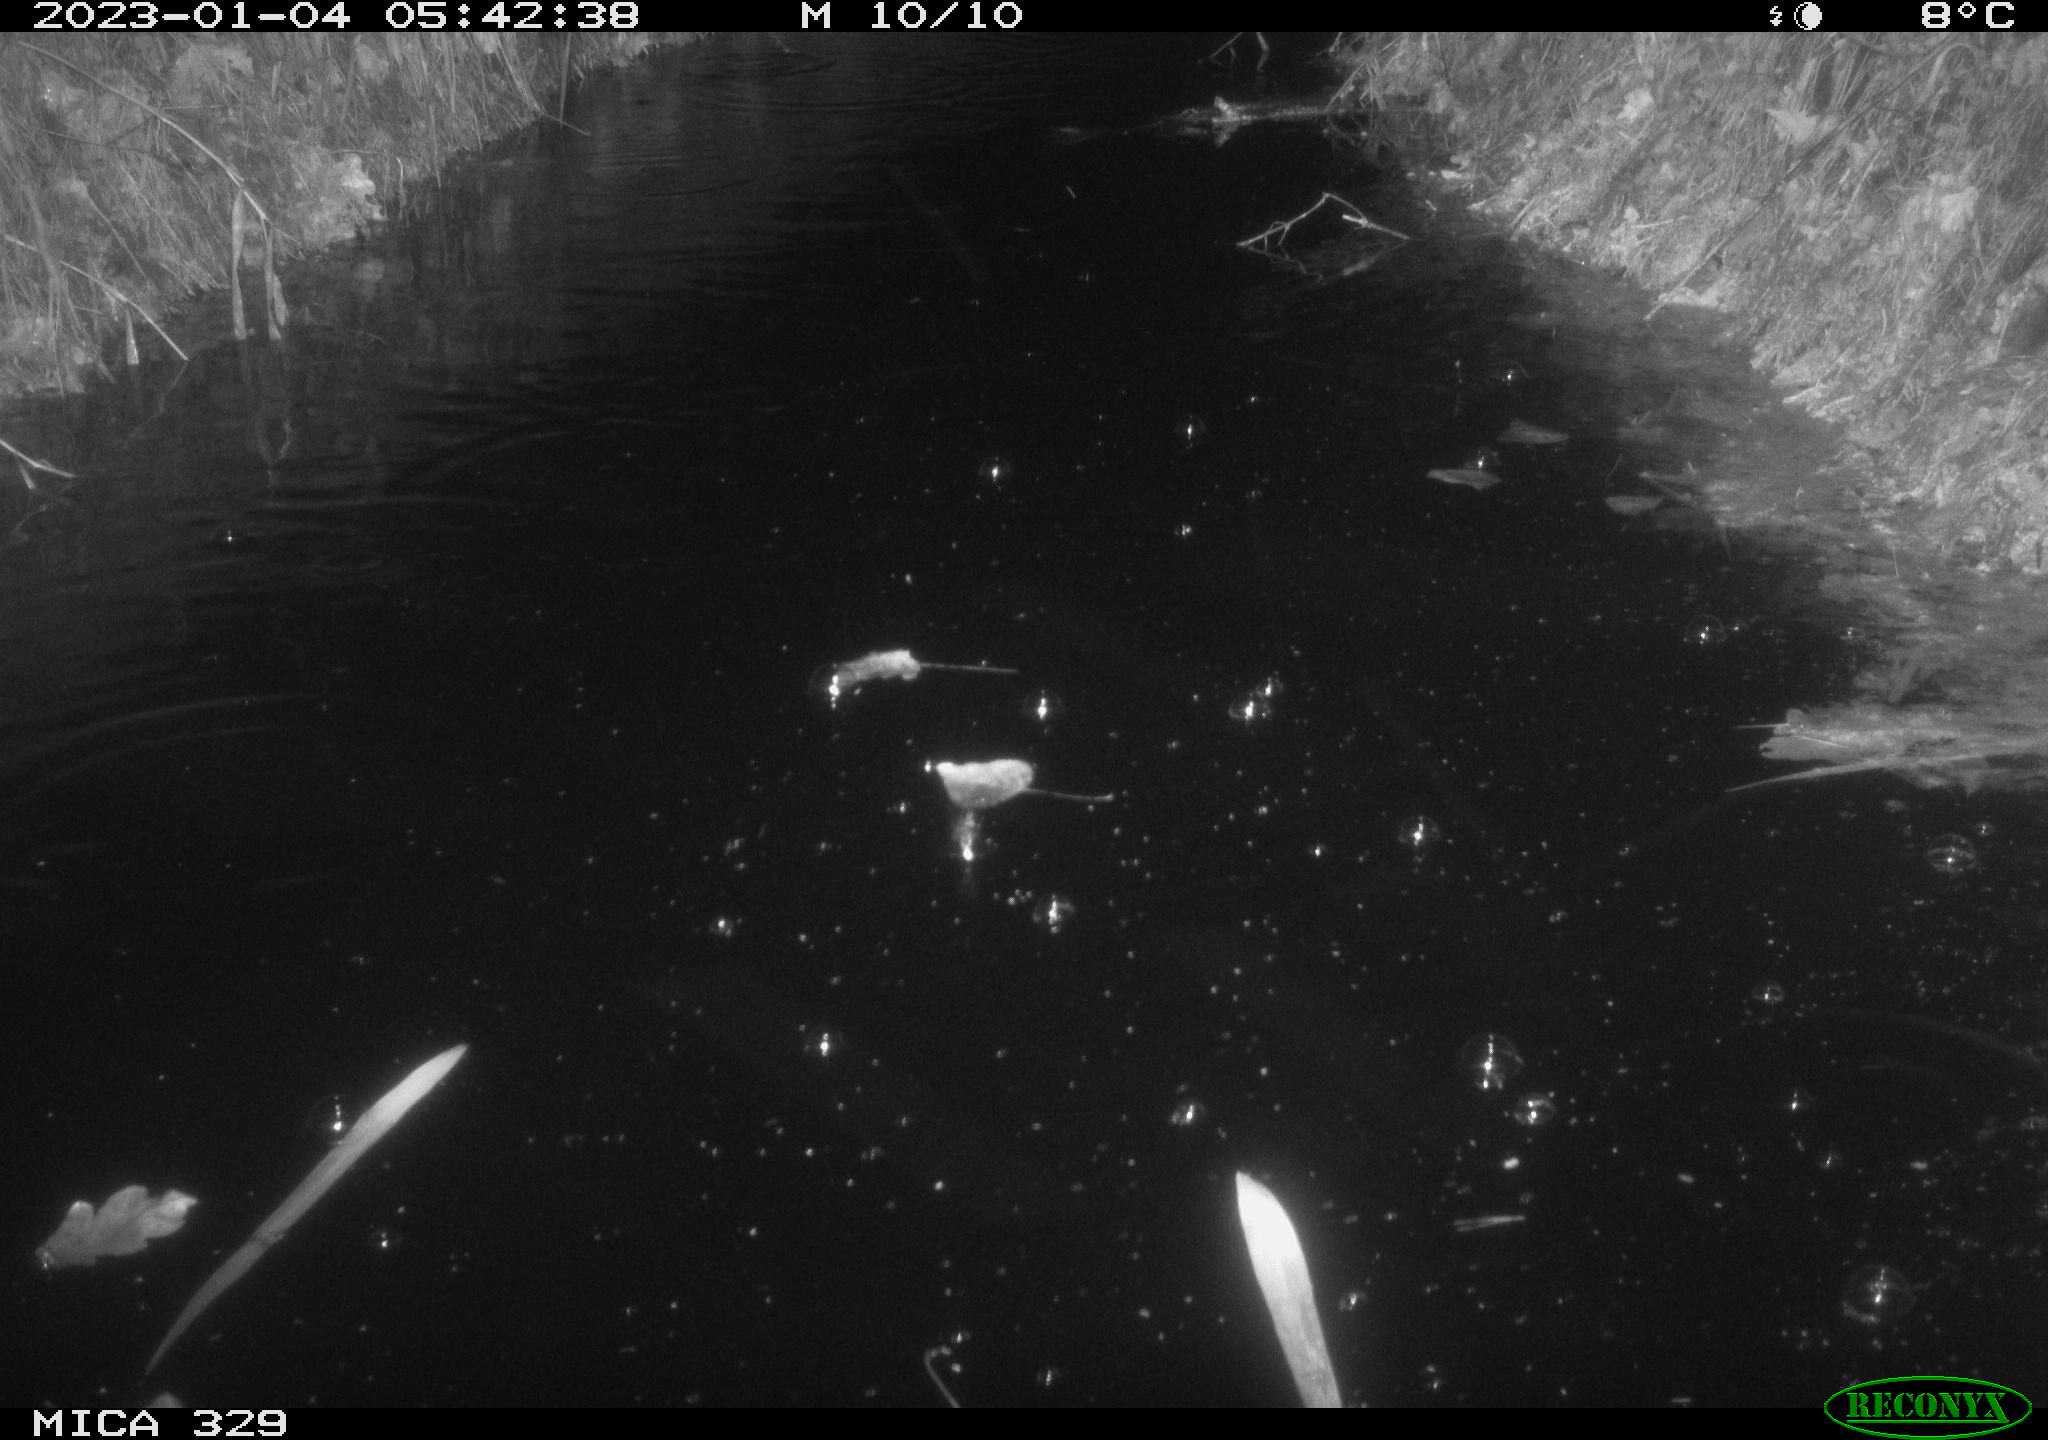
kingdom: Animalia
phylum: Chordata
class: Mammalia
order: Rodentia
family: Cricetidae
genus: Ondatra
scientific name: Ondatra zibethicus
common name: Muskrat
